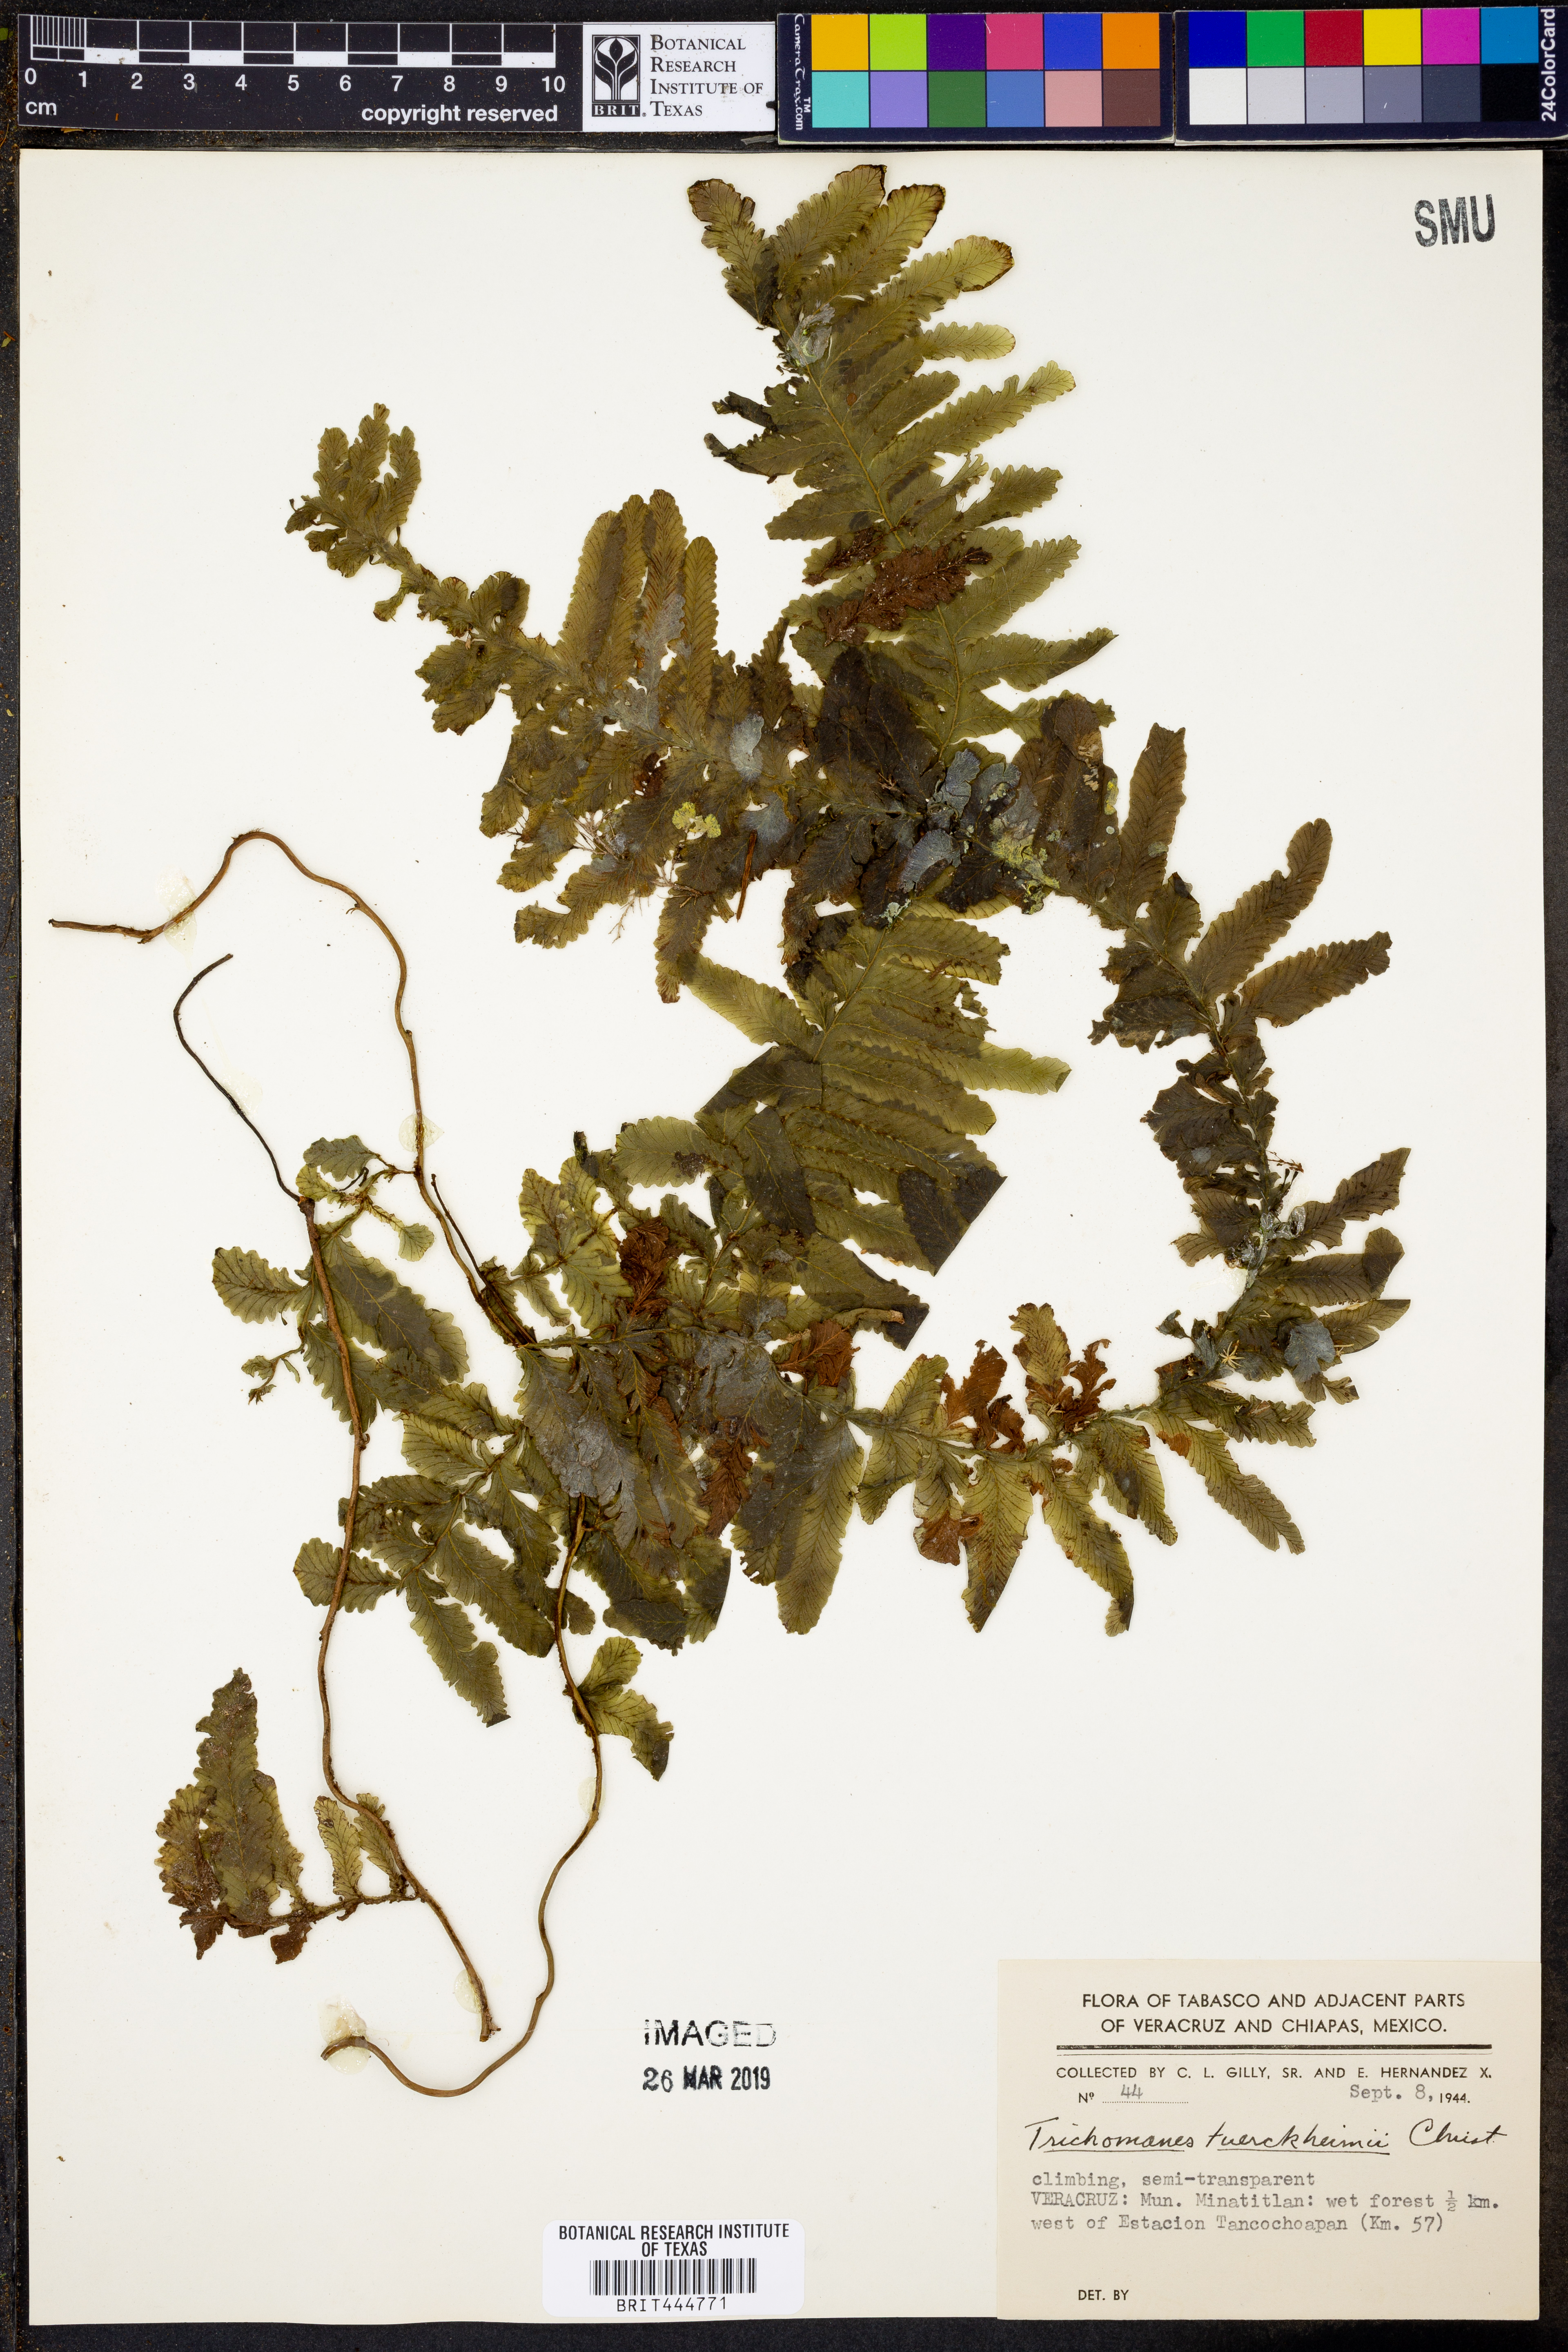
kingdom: Plantae
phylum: Tracheophyta
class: Polypodiopsida
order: Hymenophyllales
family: Hymenophyllaceae
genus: Trichomanes
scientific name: Trichomanes tuerckheimii
